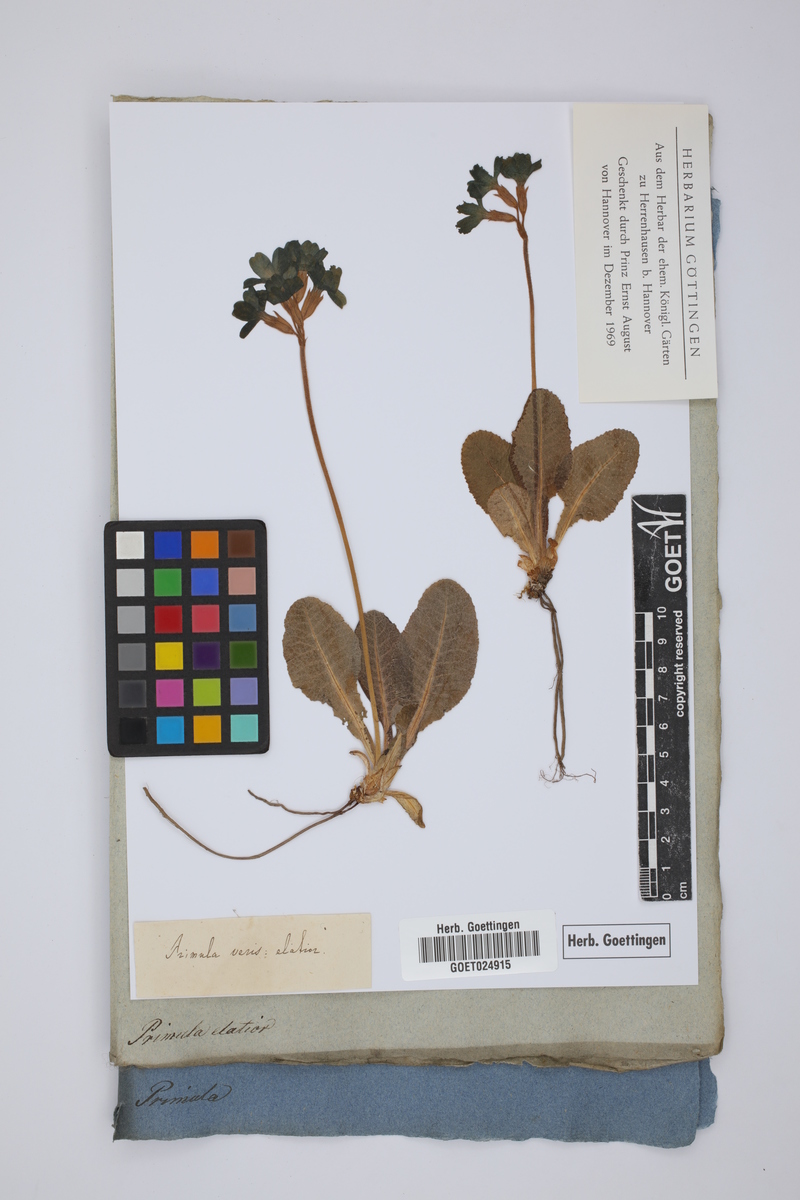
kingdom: Plantae
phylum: Tracheophyta
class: Magnoliopsida
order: Ericales
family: Primulaceae
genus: Primula
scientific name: Primula elatior
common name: Oxlip
